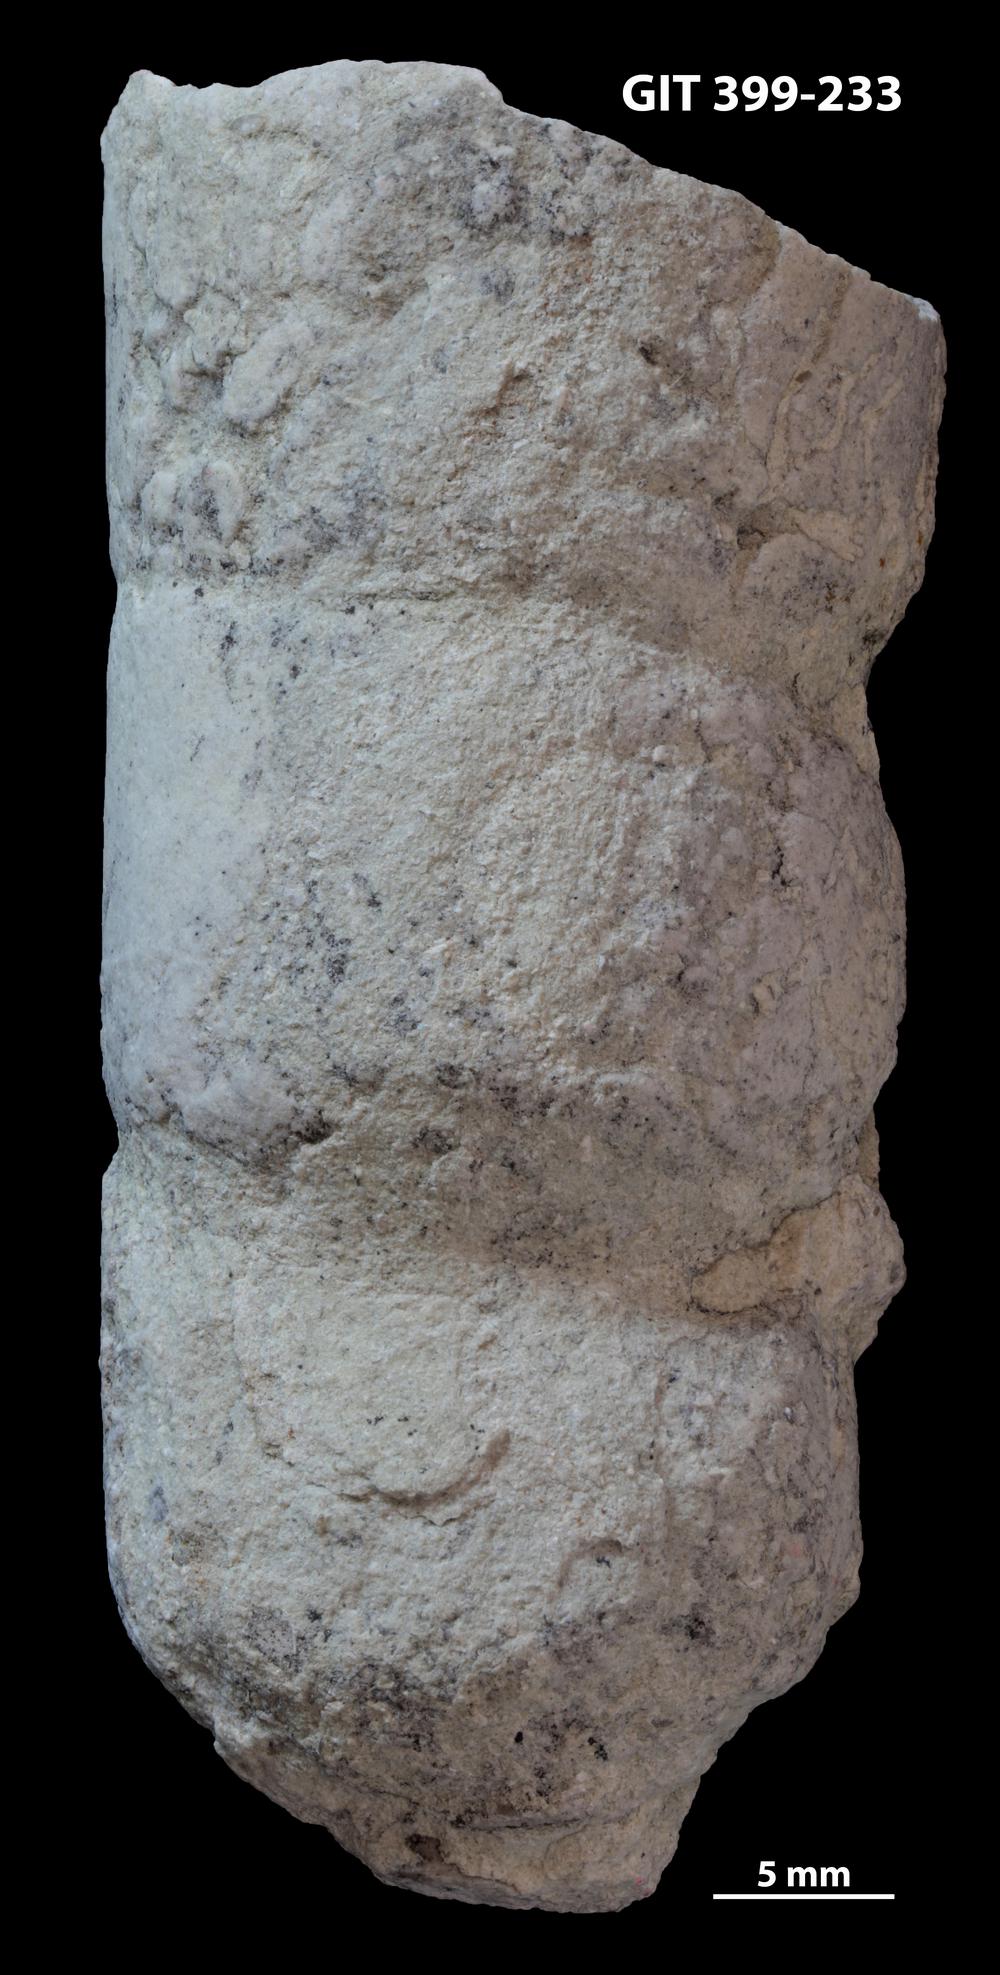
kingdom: Animalia
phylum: Mollusca
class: Cephalopoda
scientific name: Cephalopoda
